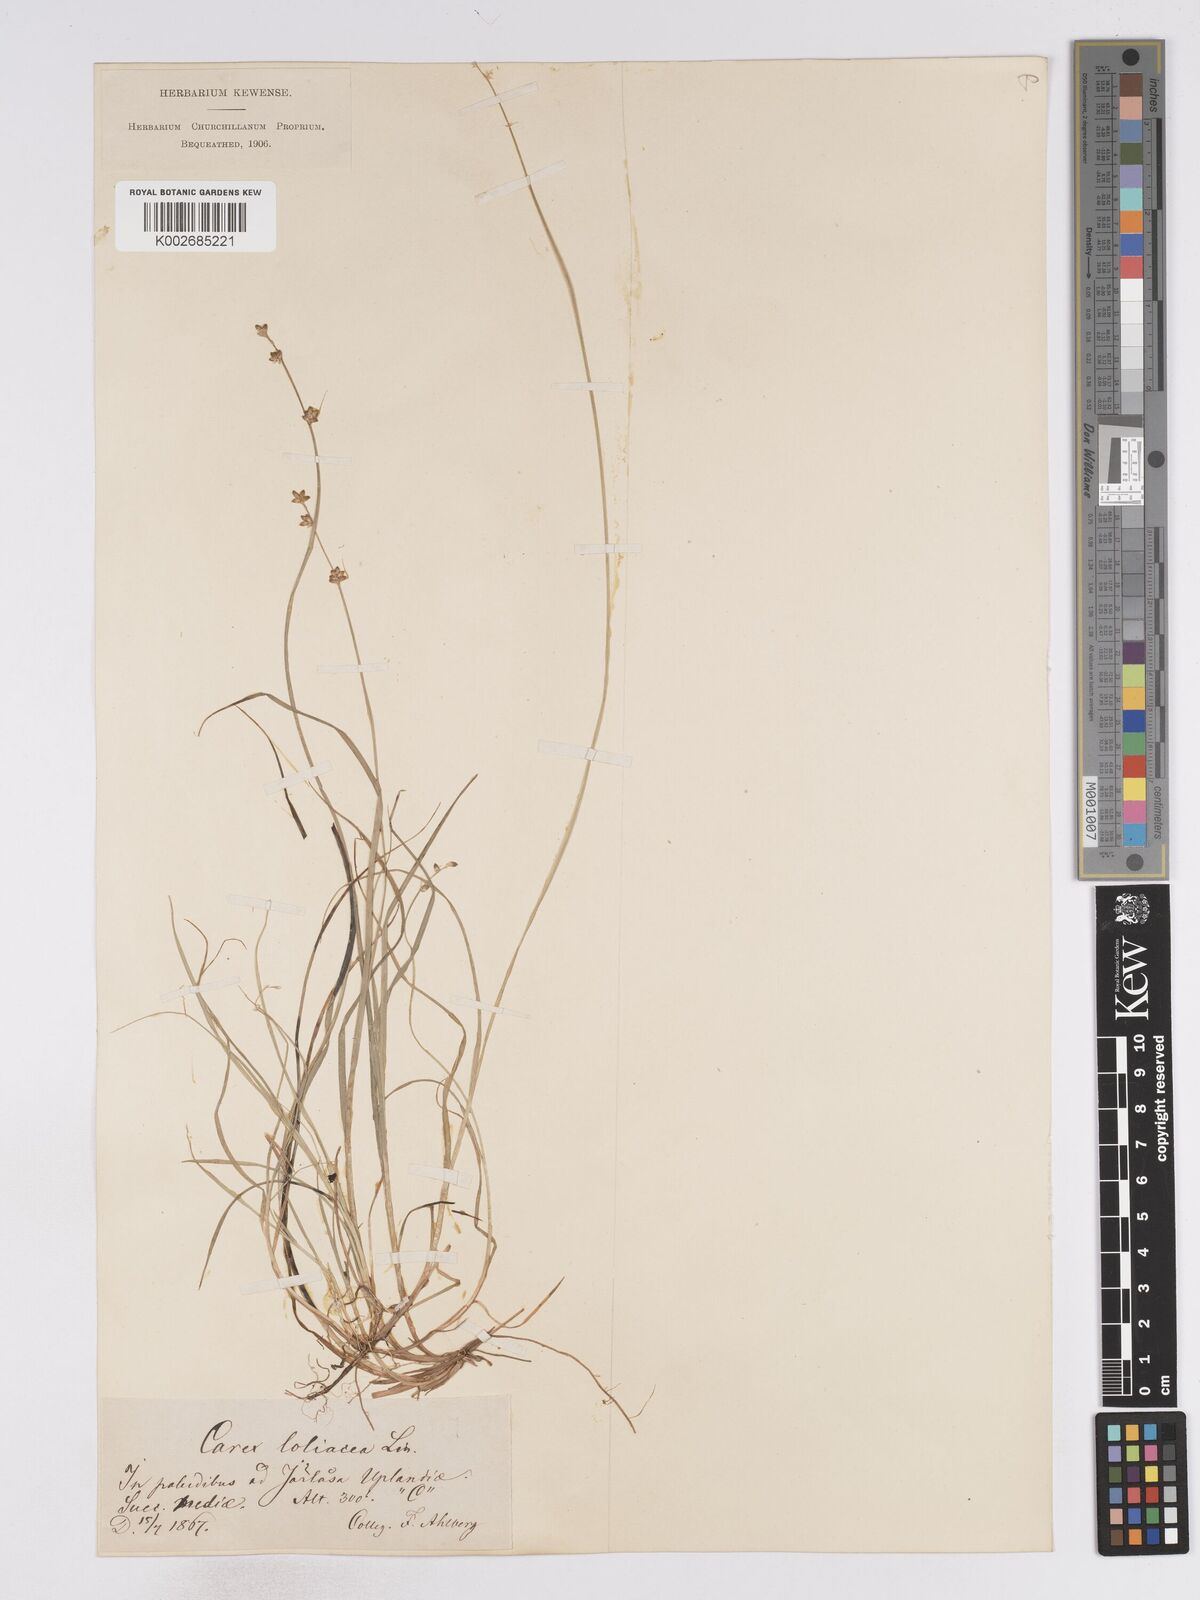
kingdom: Plantae
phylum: Tracheophyta
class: Liliopsida
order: Poales
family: Cyperaceae
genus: Carex
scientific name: Carex loliacea
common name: Ryegrass sedge
